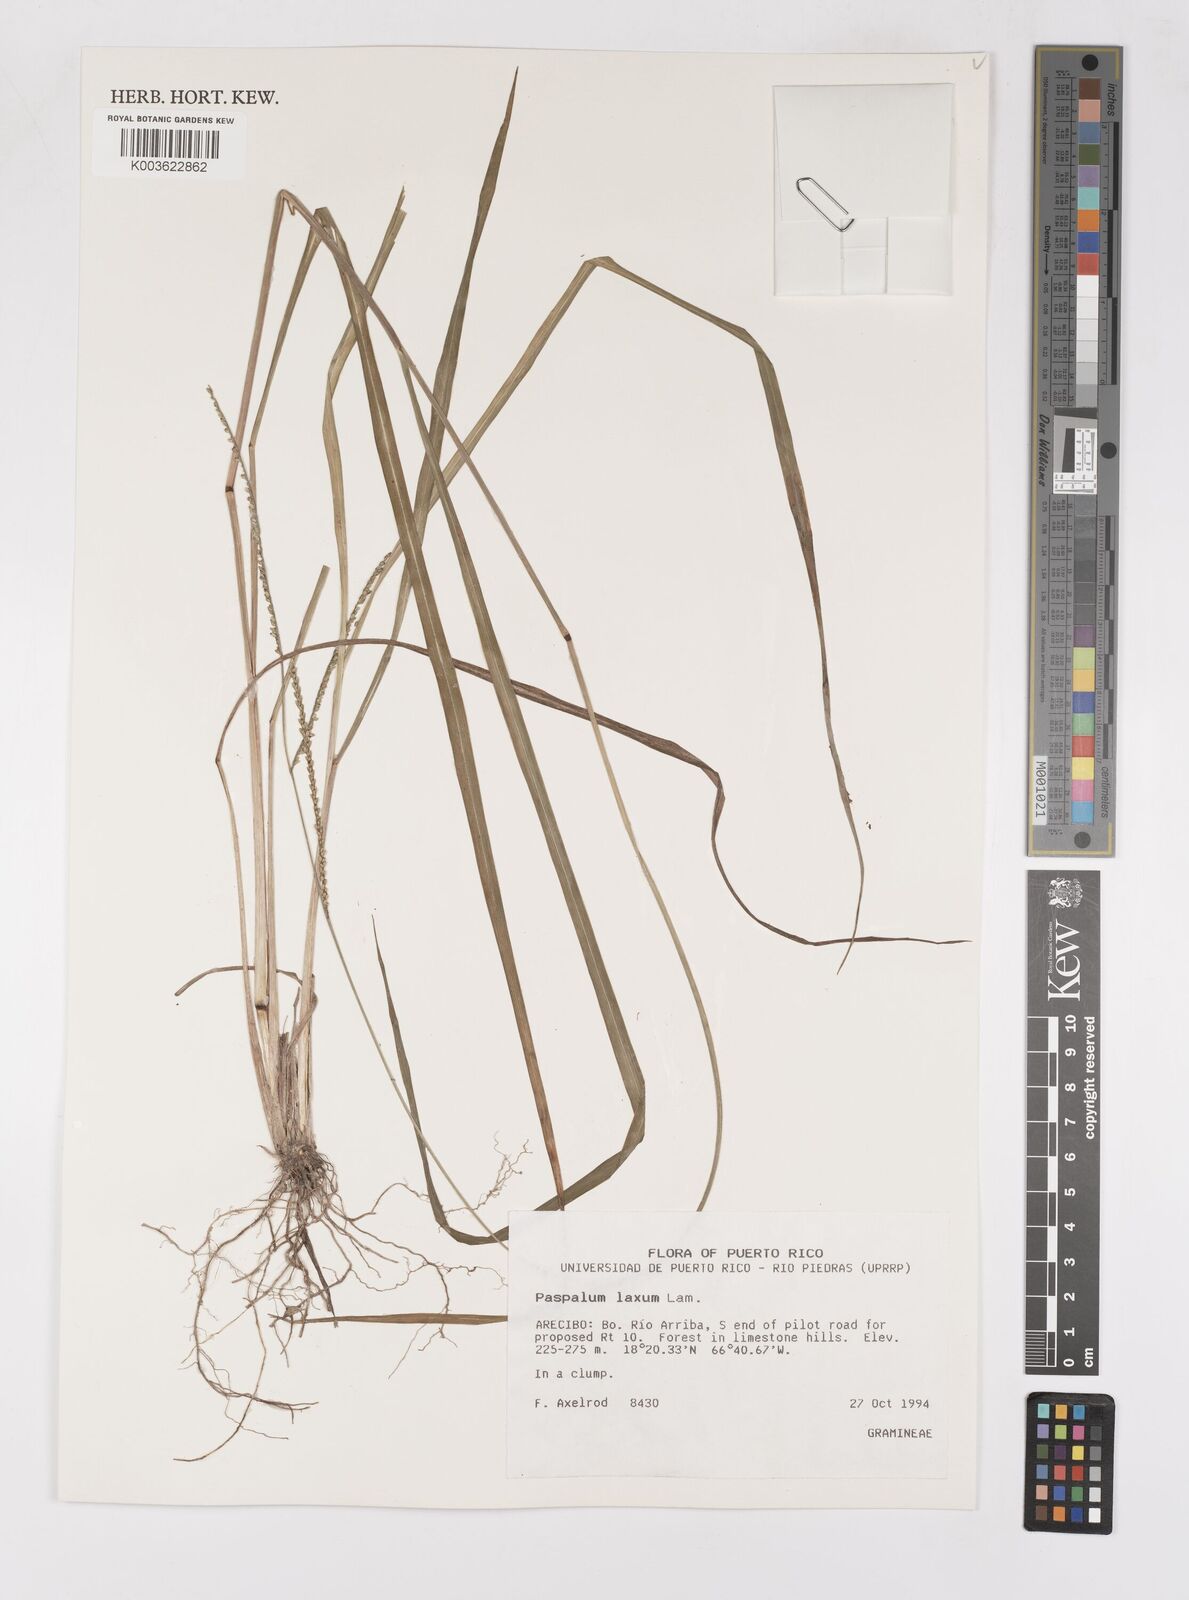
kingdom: Plantae
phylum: Tracheophyta
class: Liliopsida
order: Poales
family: Poaceae
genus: Paspalum
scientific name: Paspalum laxum
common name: Coconut paspalum
